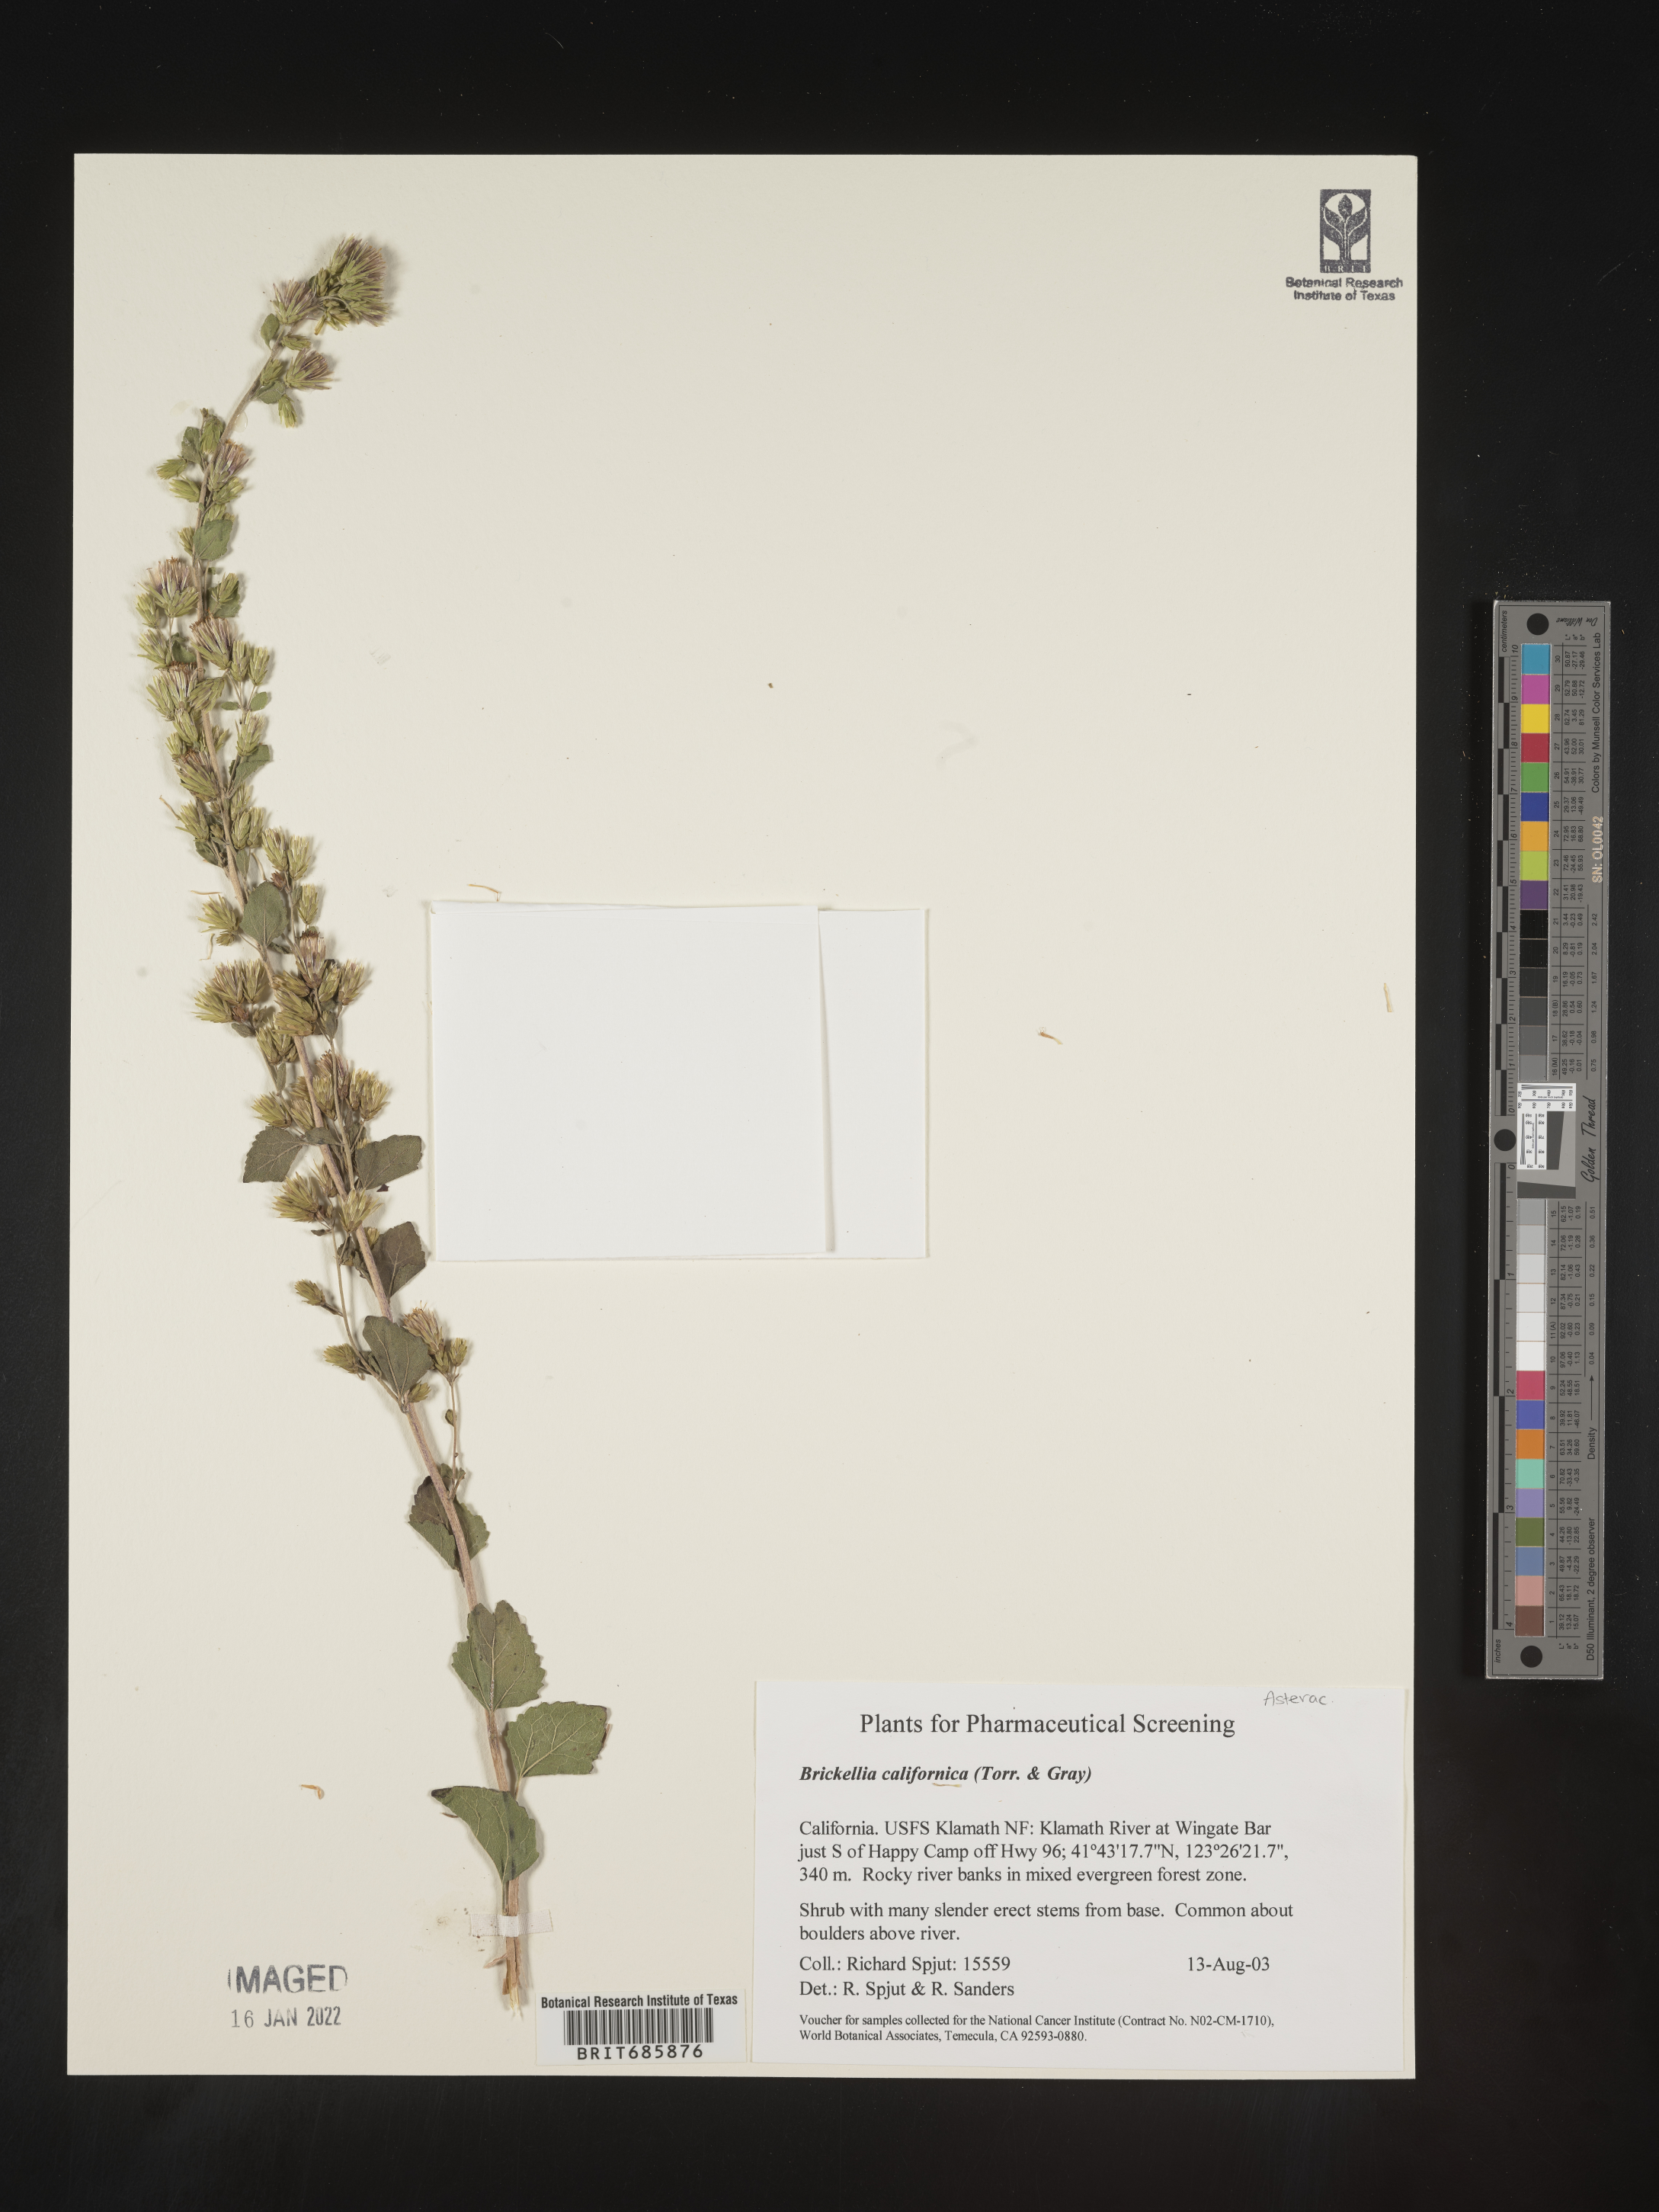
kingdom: Plantae
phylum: Tracheophyta
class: Magnoliopsida
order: Asterales
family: Asteraceae
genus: Brickellia
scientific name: Brickellia californica
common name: California brickellbush
